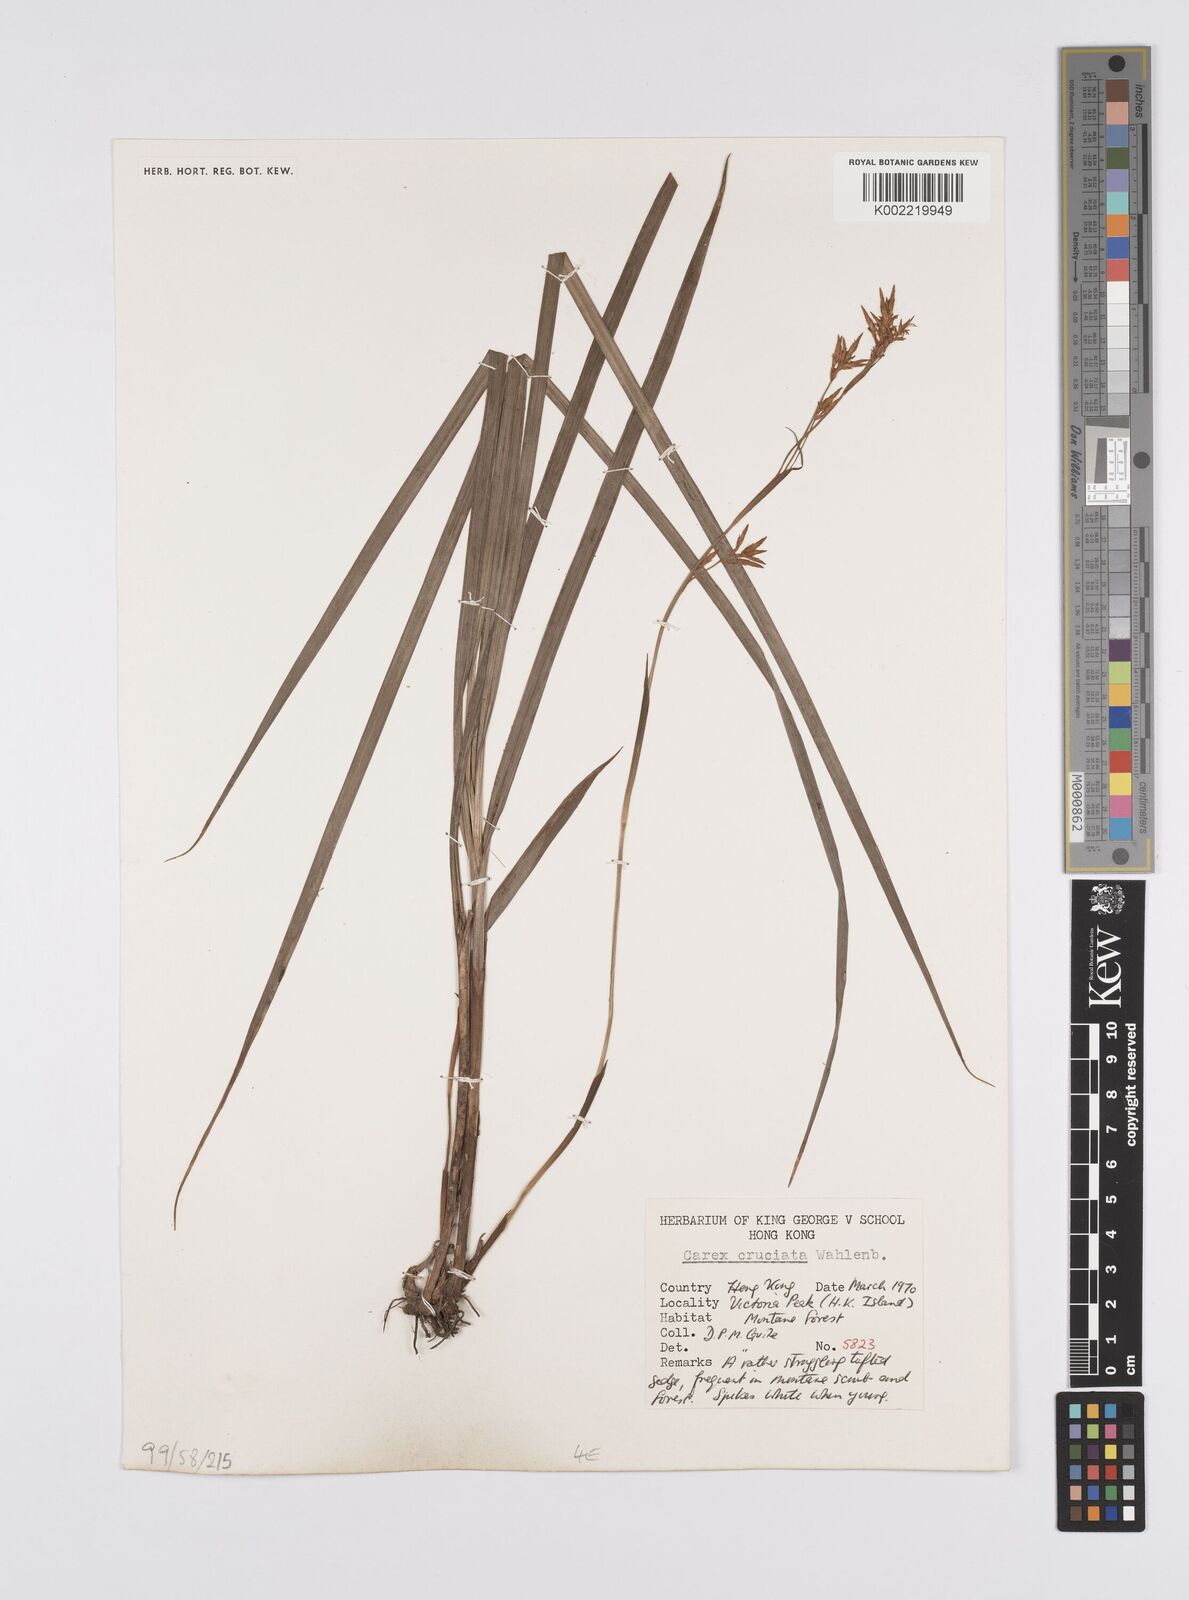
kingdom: Plantae
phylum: Tracheophyta
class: Liliopsida
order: Poales
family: Cyperaceae
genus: Carex
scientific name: Carex cruciata
